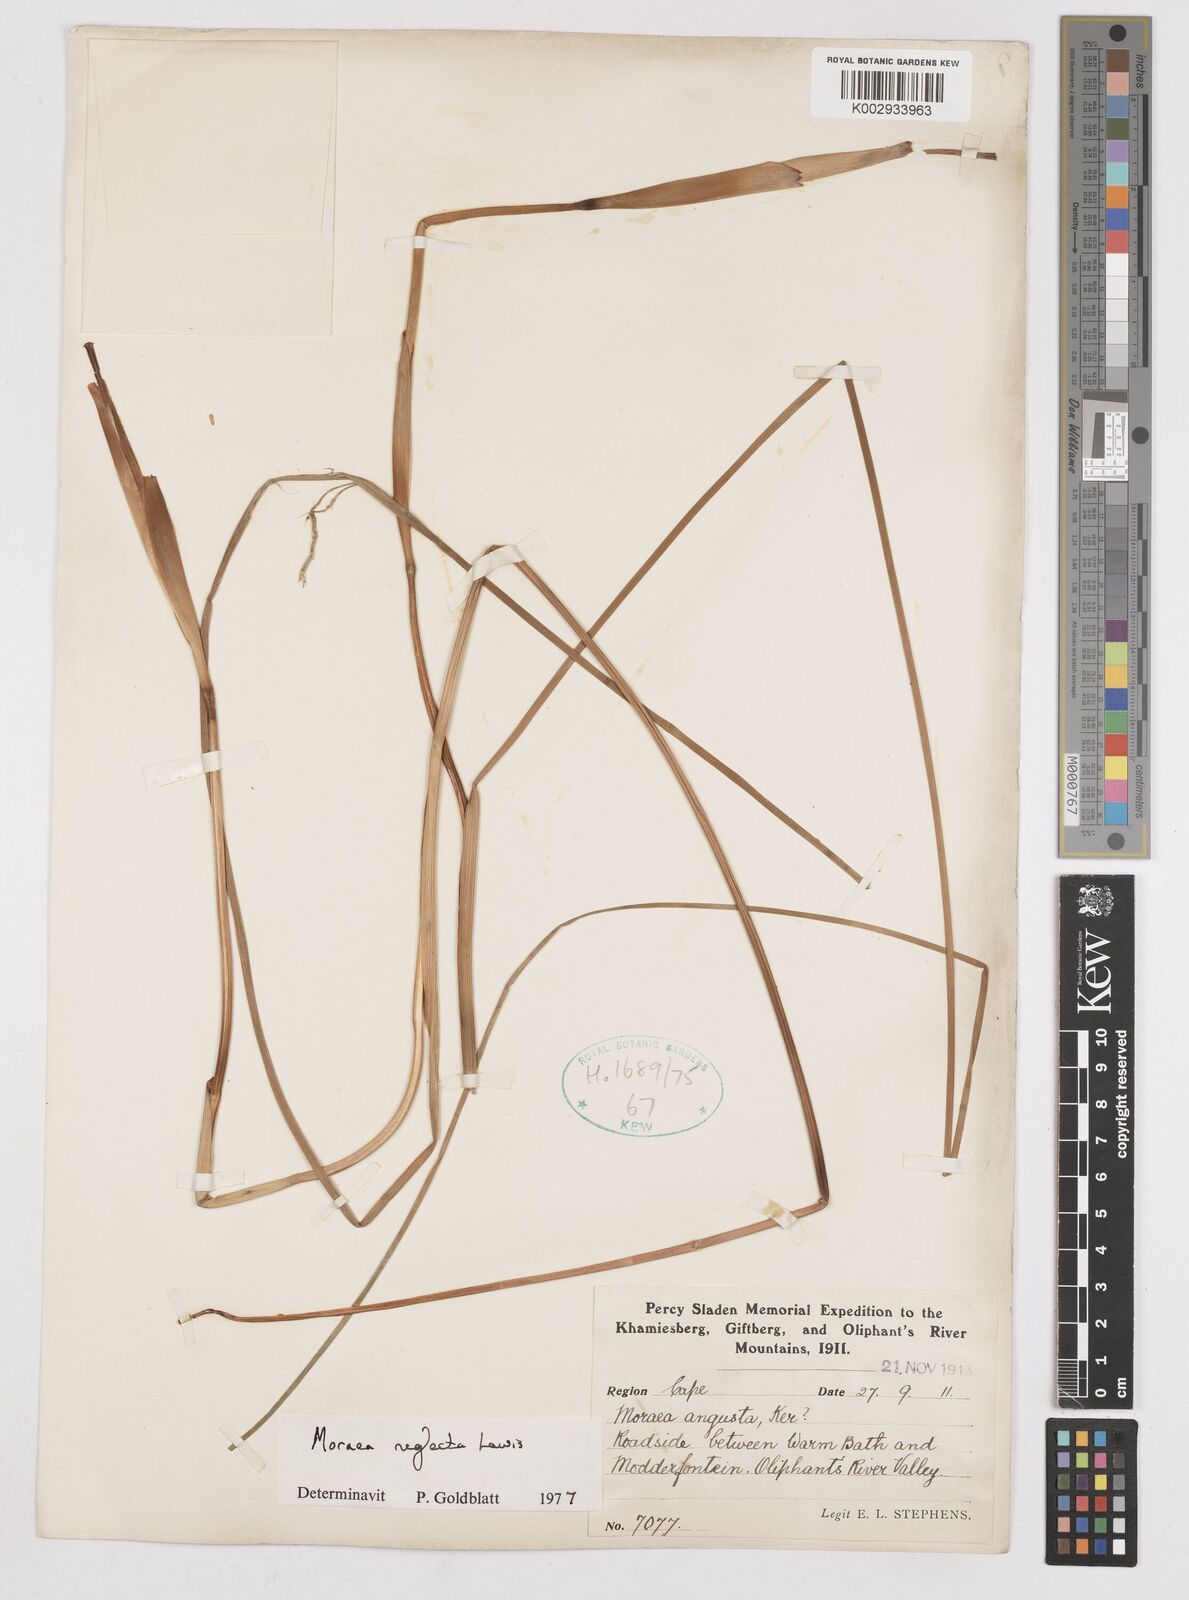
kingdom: Plantae
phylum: Tracheophyta
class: Liliopsida
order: Asparagales
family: Iridaceae
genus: Moraea
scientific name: Moraea neglecta
